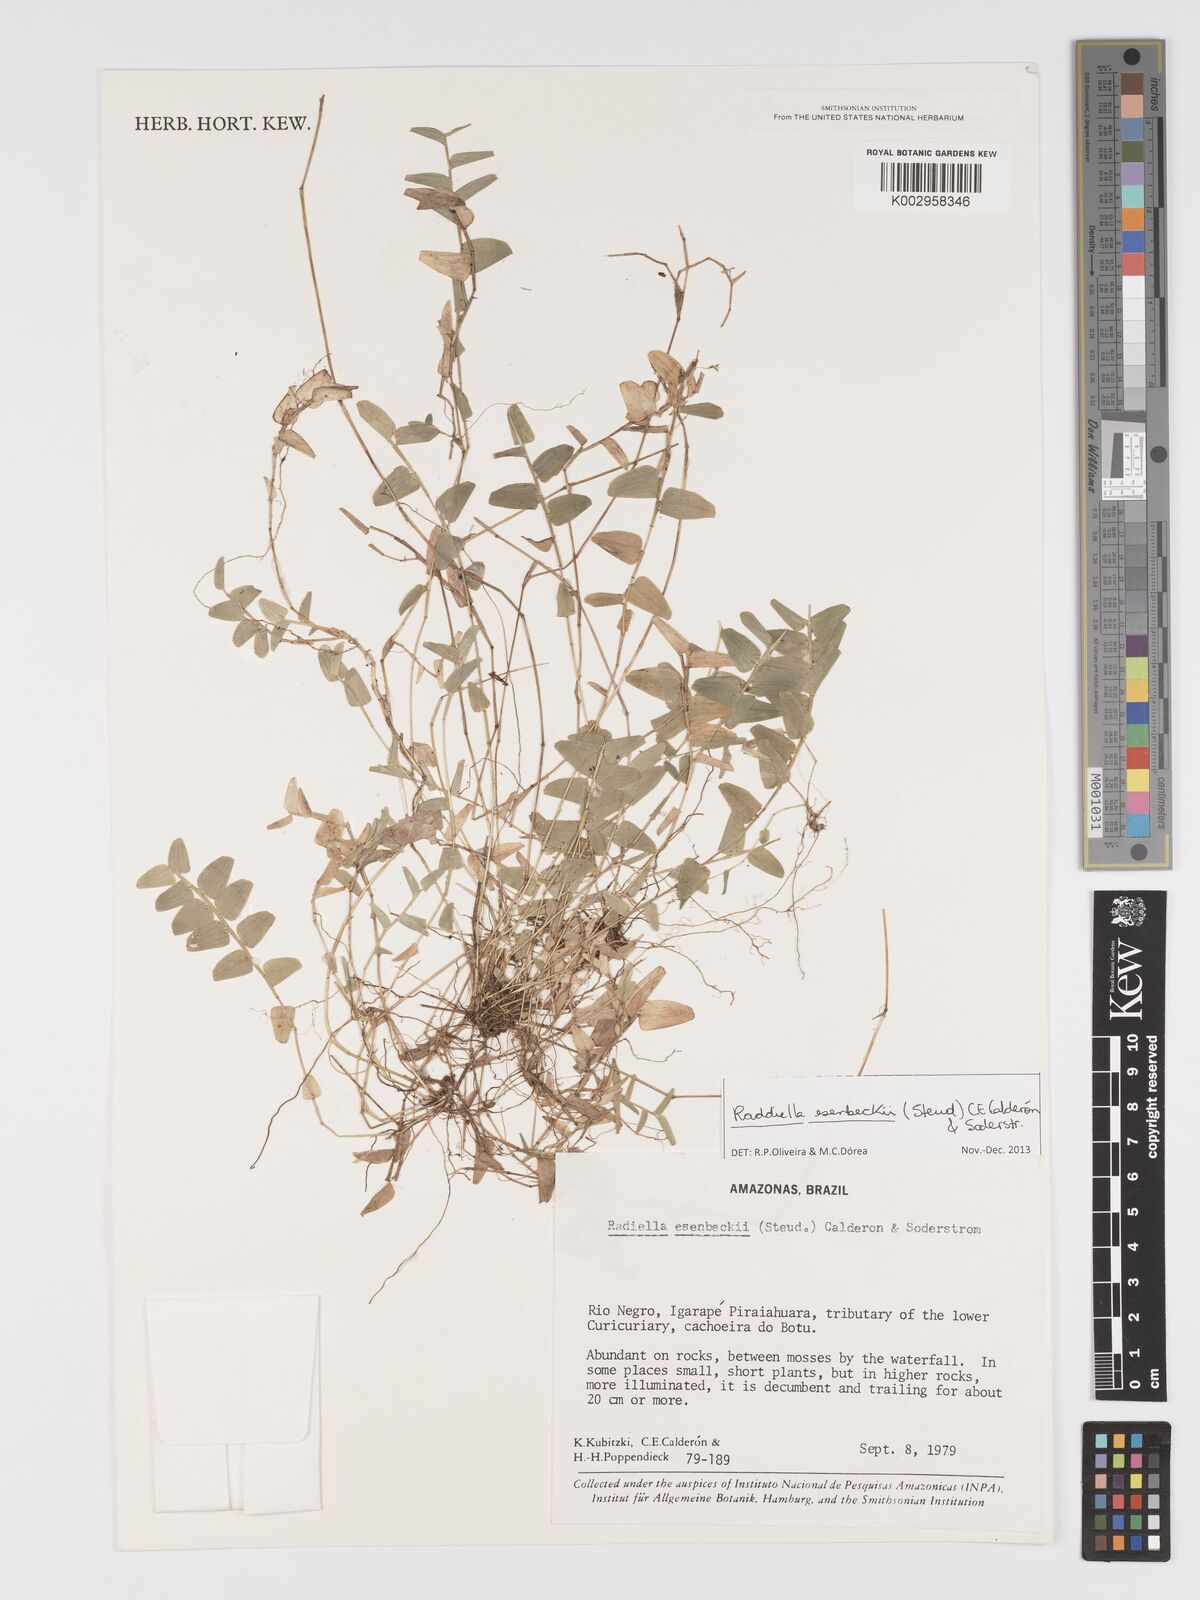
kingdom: Plantae
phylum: Tracheophyta
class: Liliopsida
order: Poales
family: Poaceae
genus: Raddiella
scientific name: Raddiella esenbeckii
